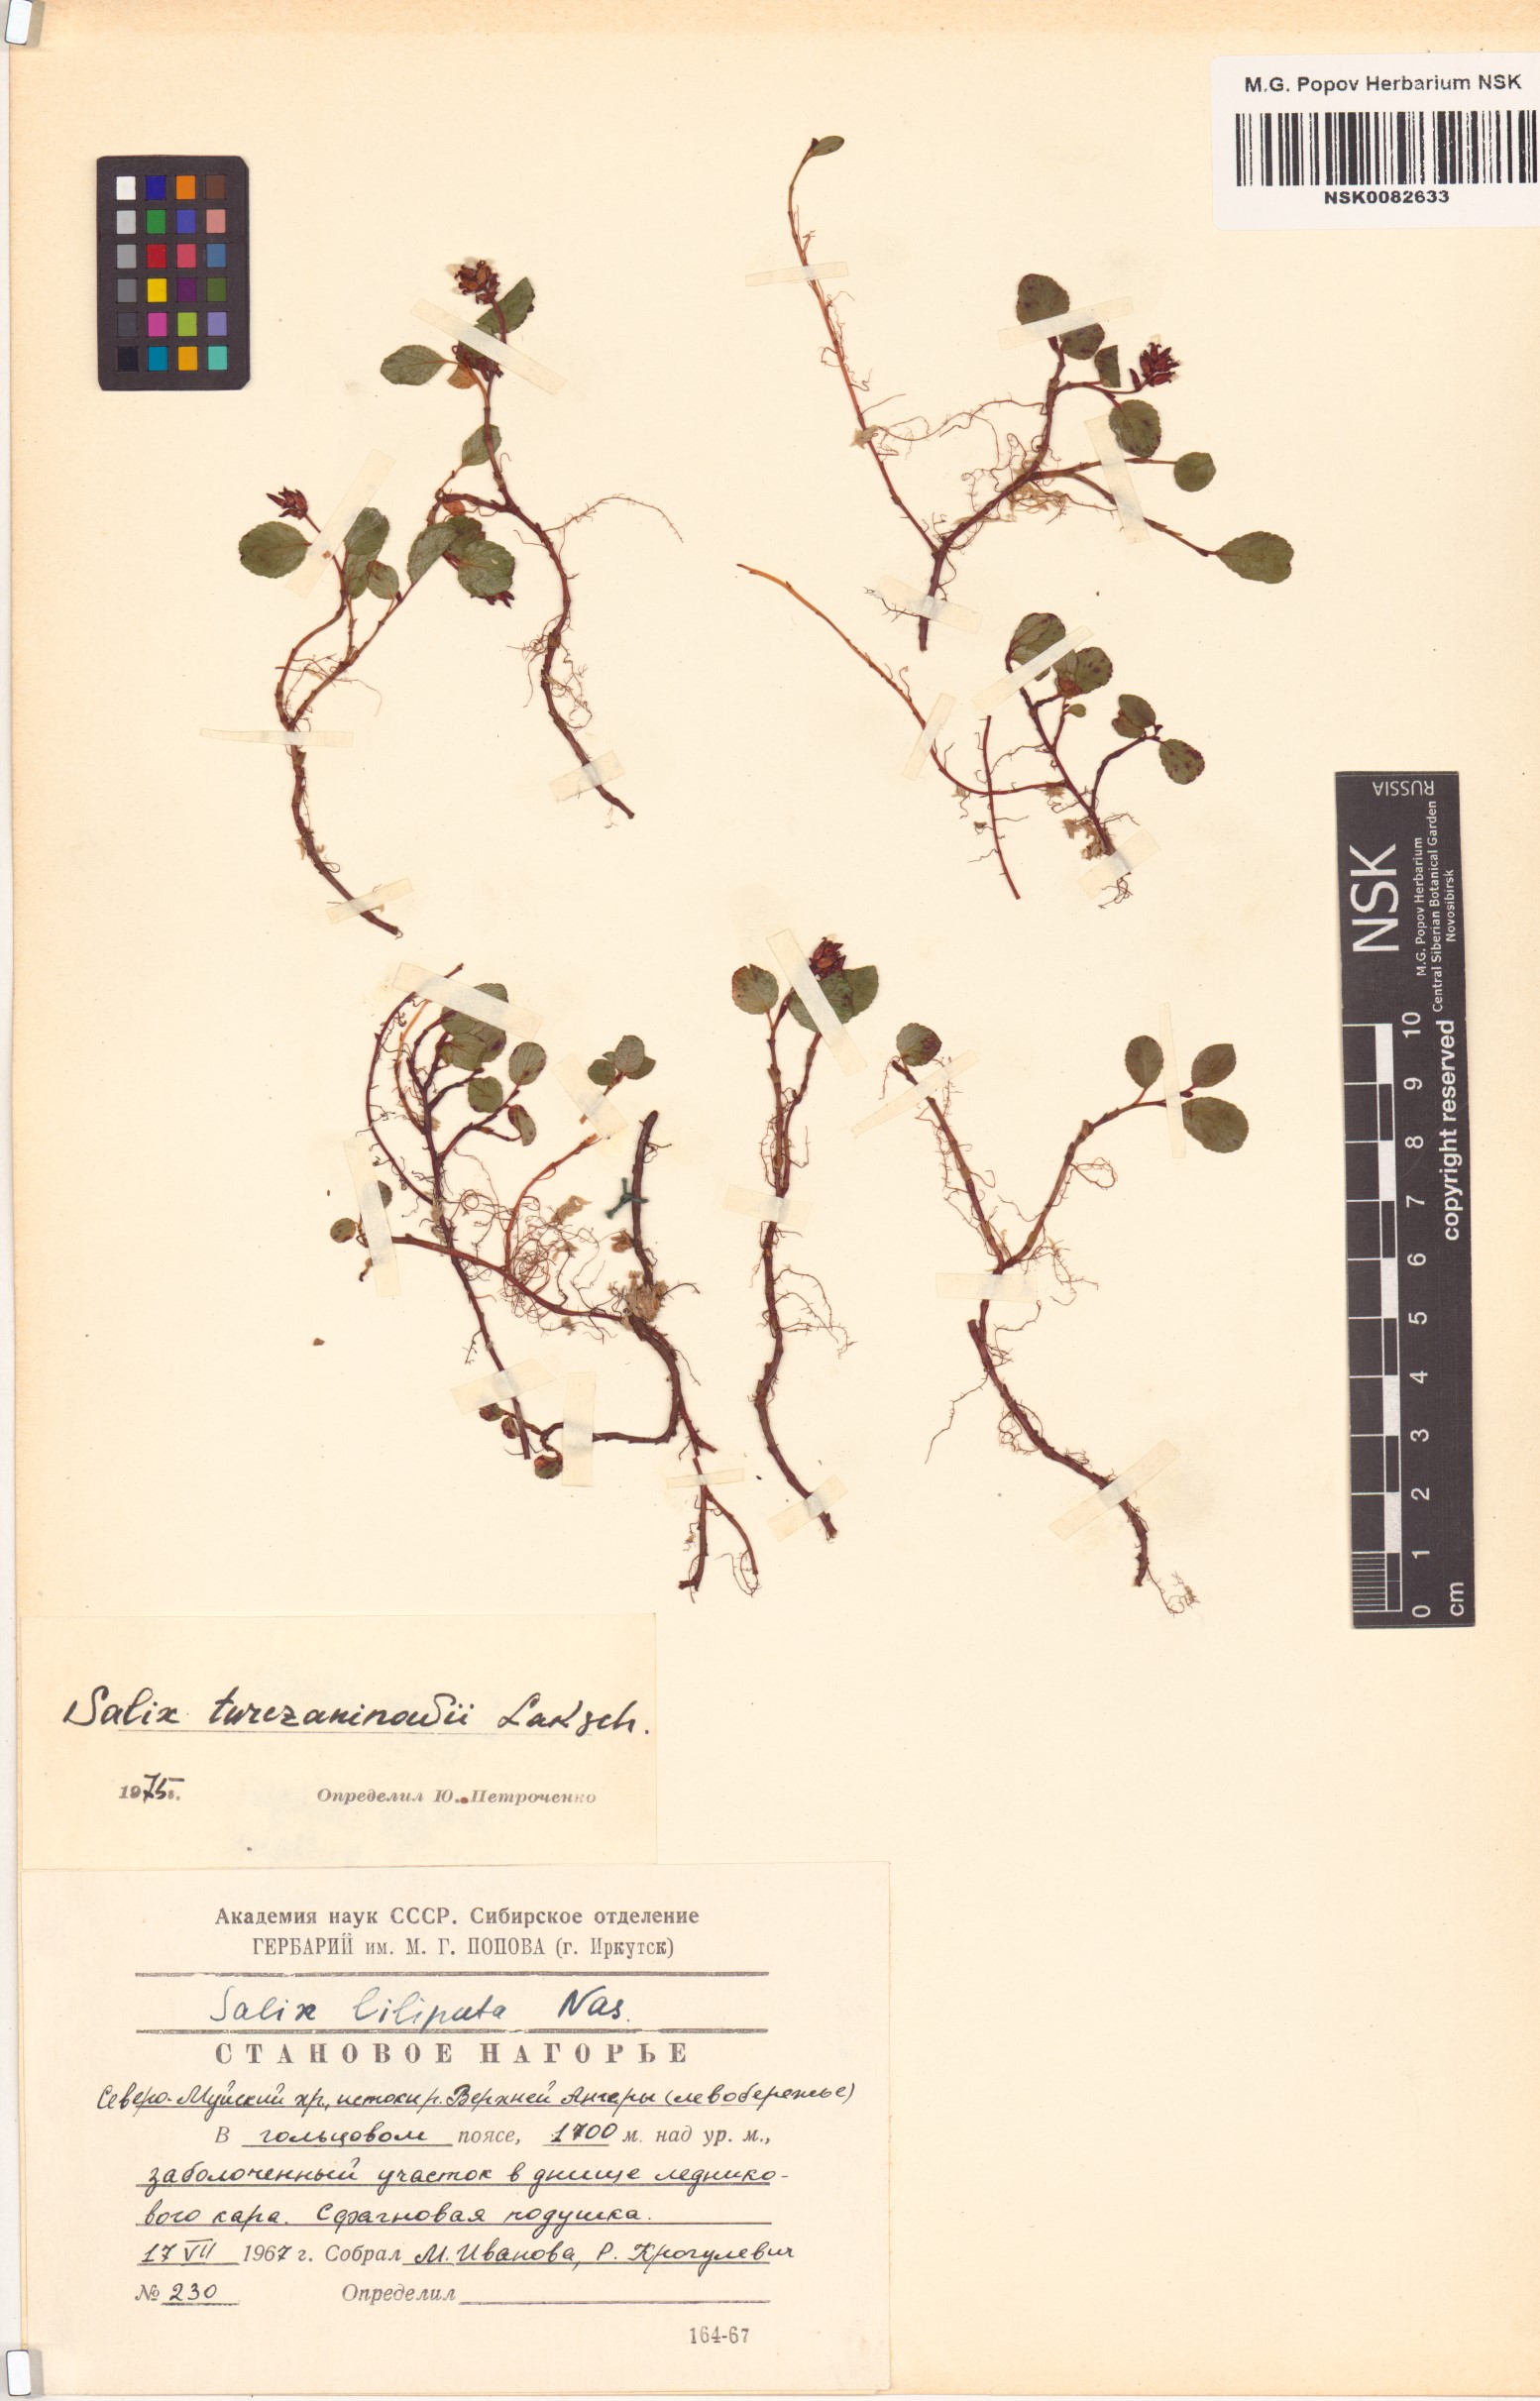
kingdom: Plantae
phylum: Tracheophyta
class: Magnoliopsida
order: Malpighiales
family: Salicaceae
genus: Salix
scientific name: Salix turczaninowii
